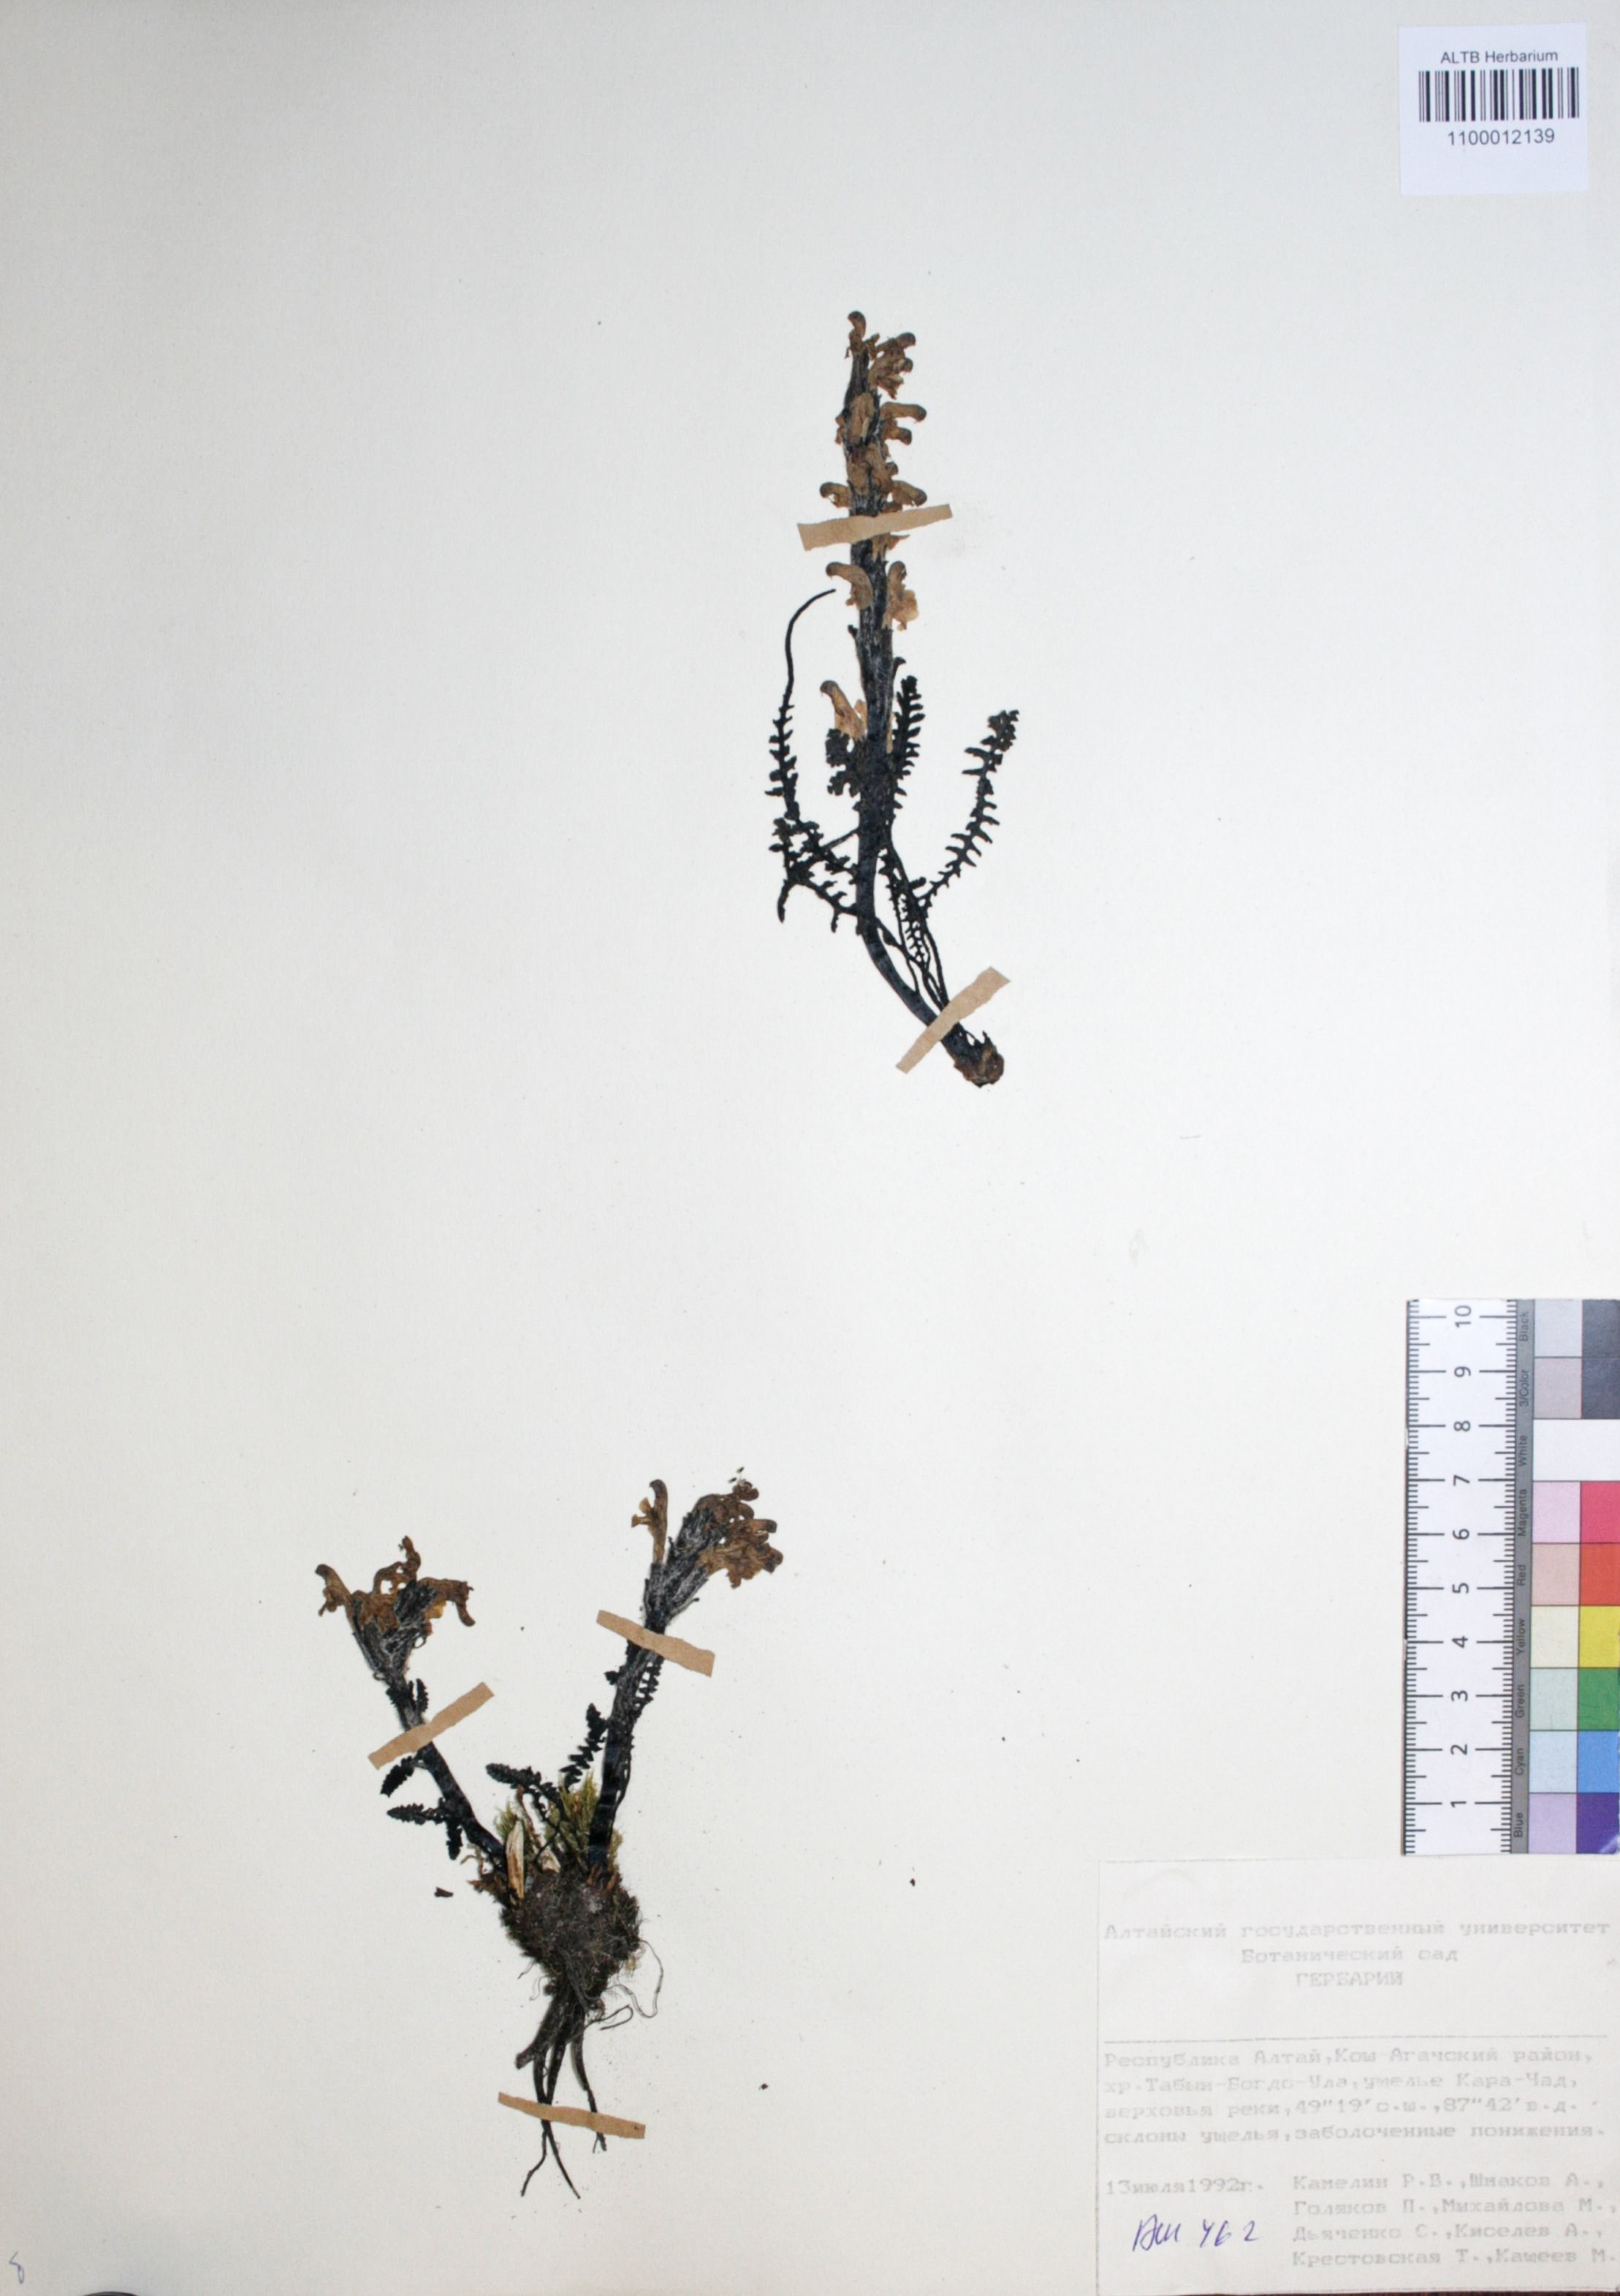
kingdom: Plantae
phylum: Tracheophyta
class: Magnoliopsida
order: Caryophyllales
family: Caryophyllaceae
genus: Silene
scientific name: Silene graminifolia
